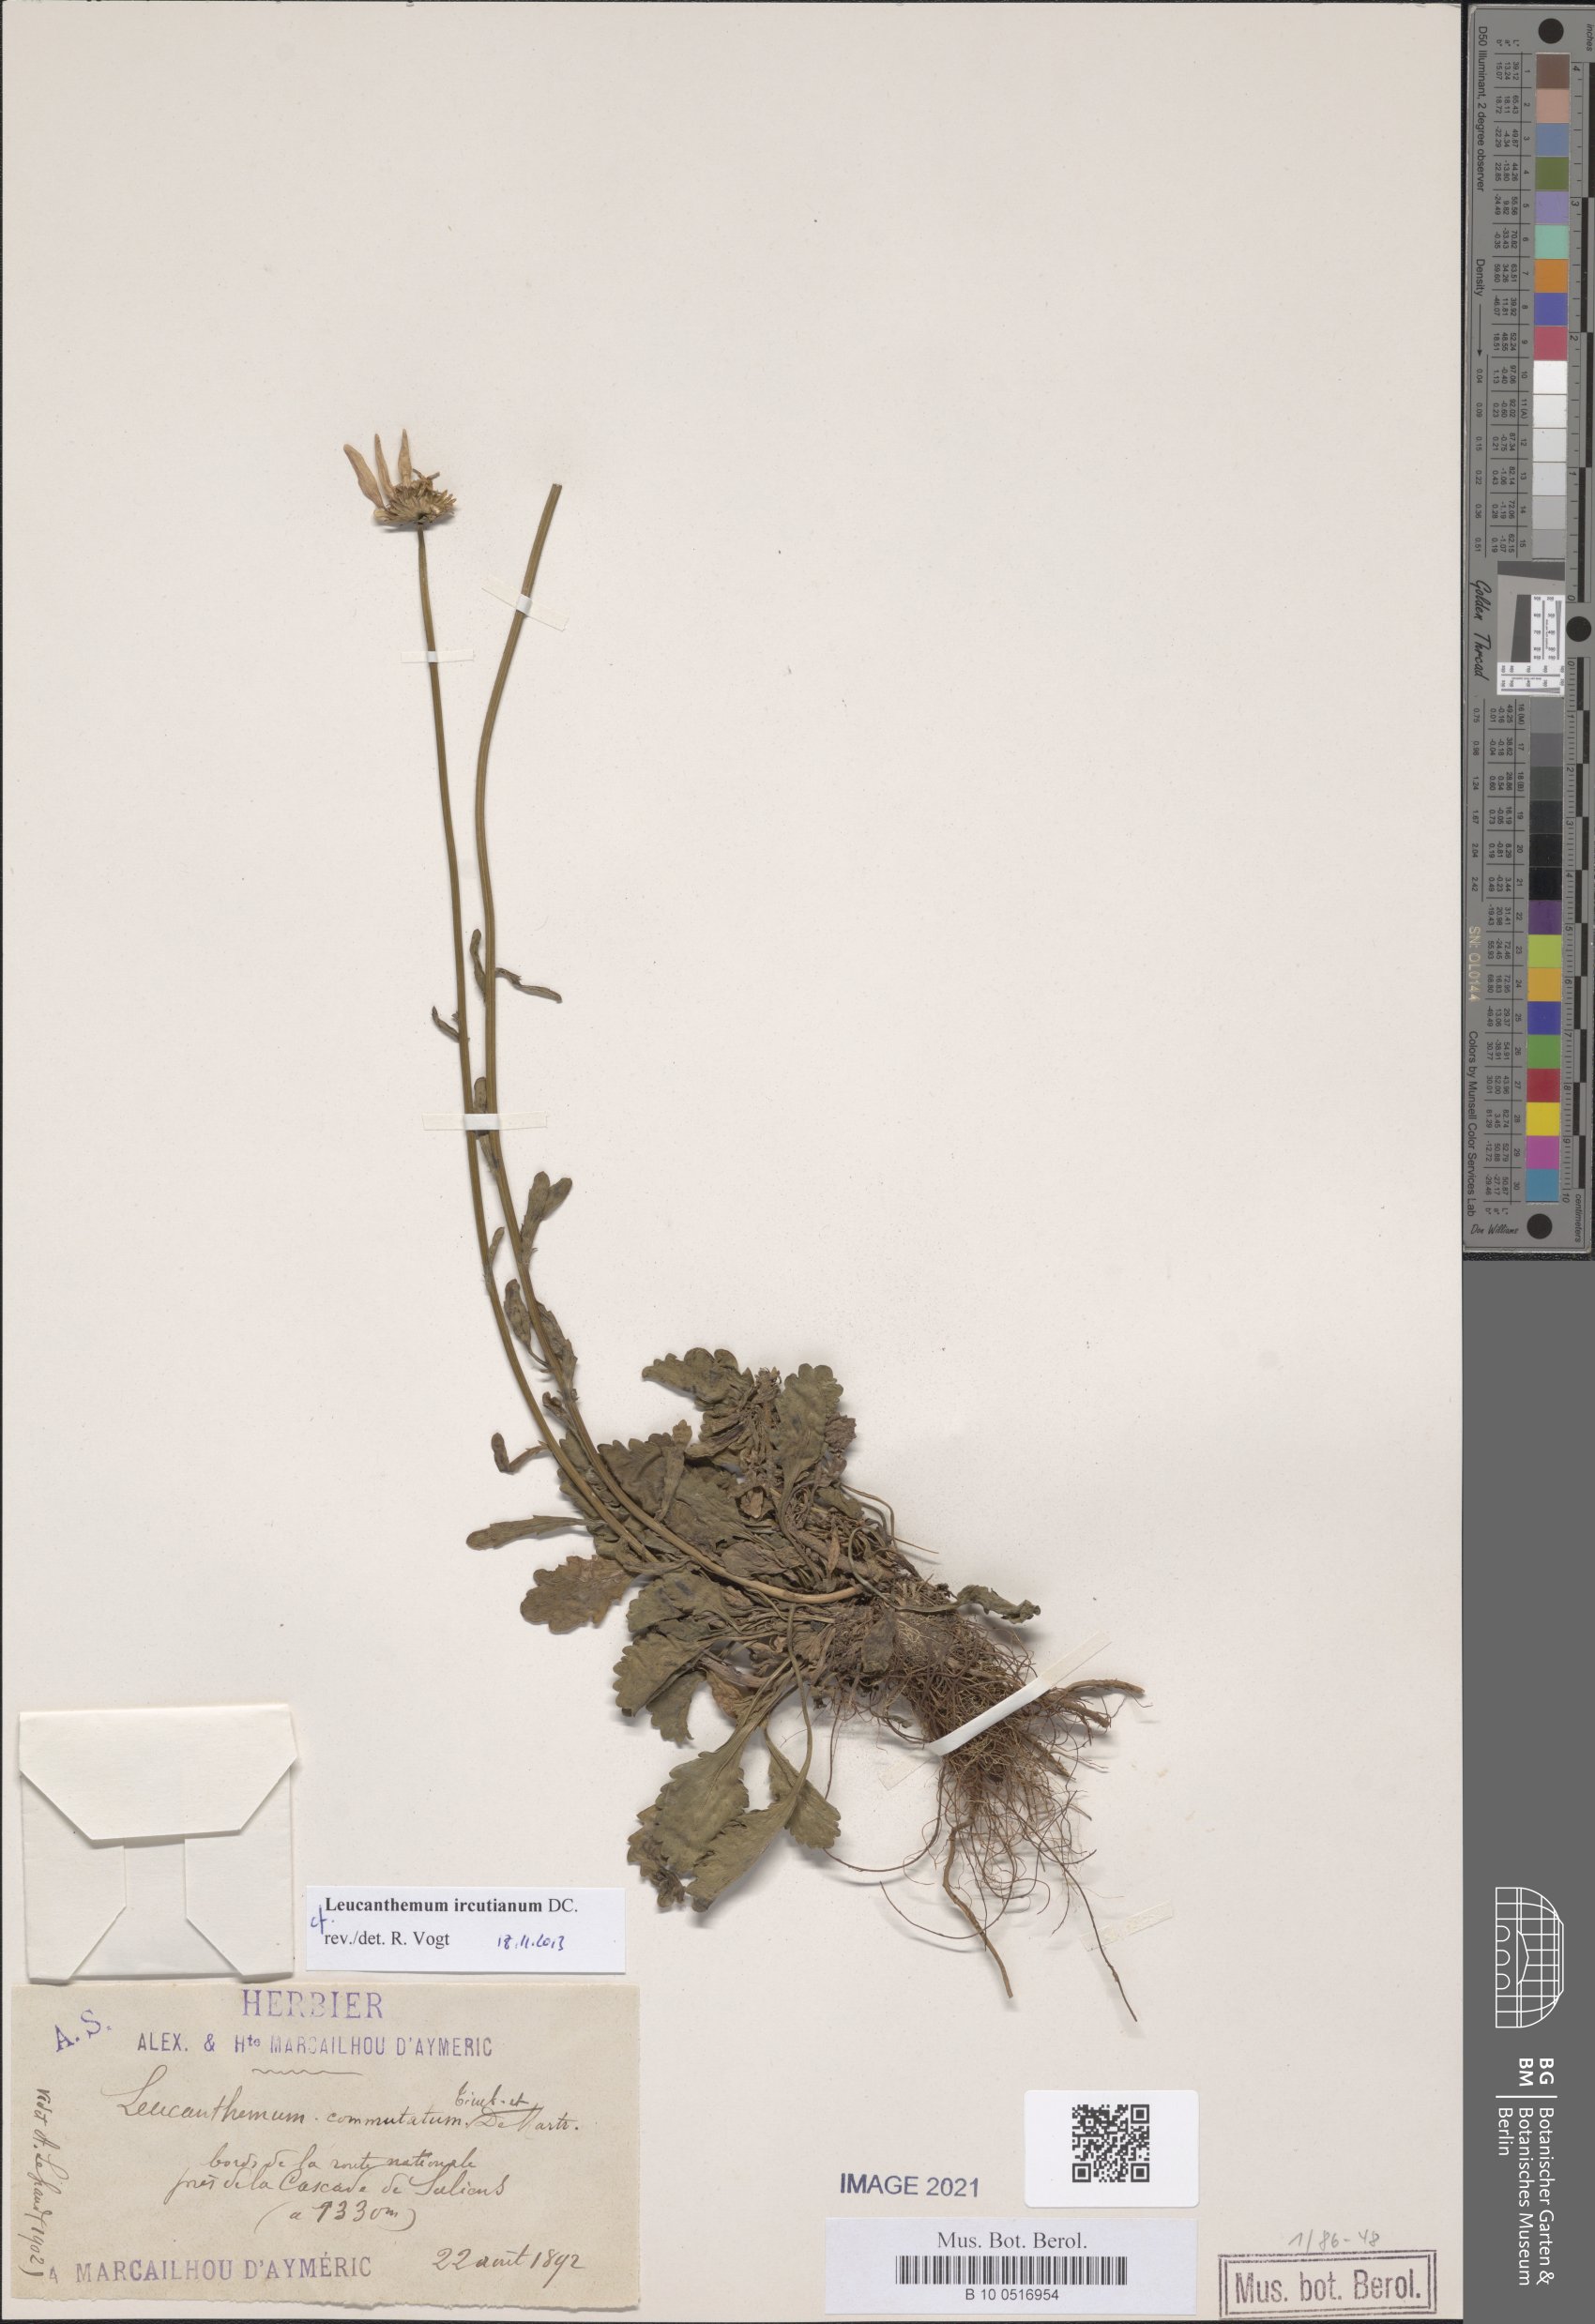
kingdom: Plantae
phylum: Tracheophyta
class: Magnoliopsida
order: Asterales
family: Asteraceae
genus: Leucanthemum
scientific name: Leucanthemum ircutianum
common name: Daisy
